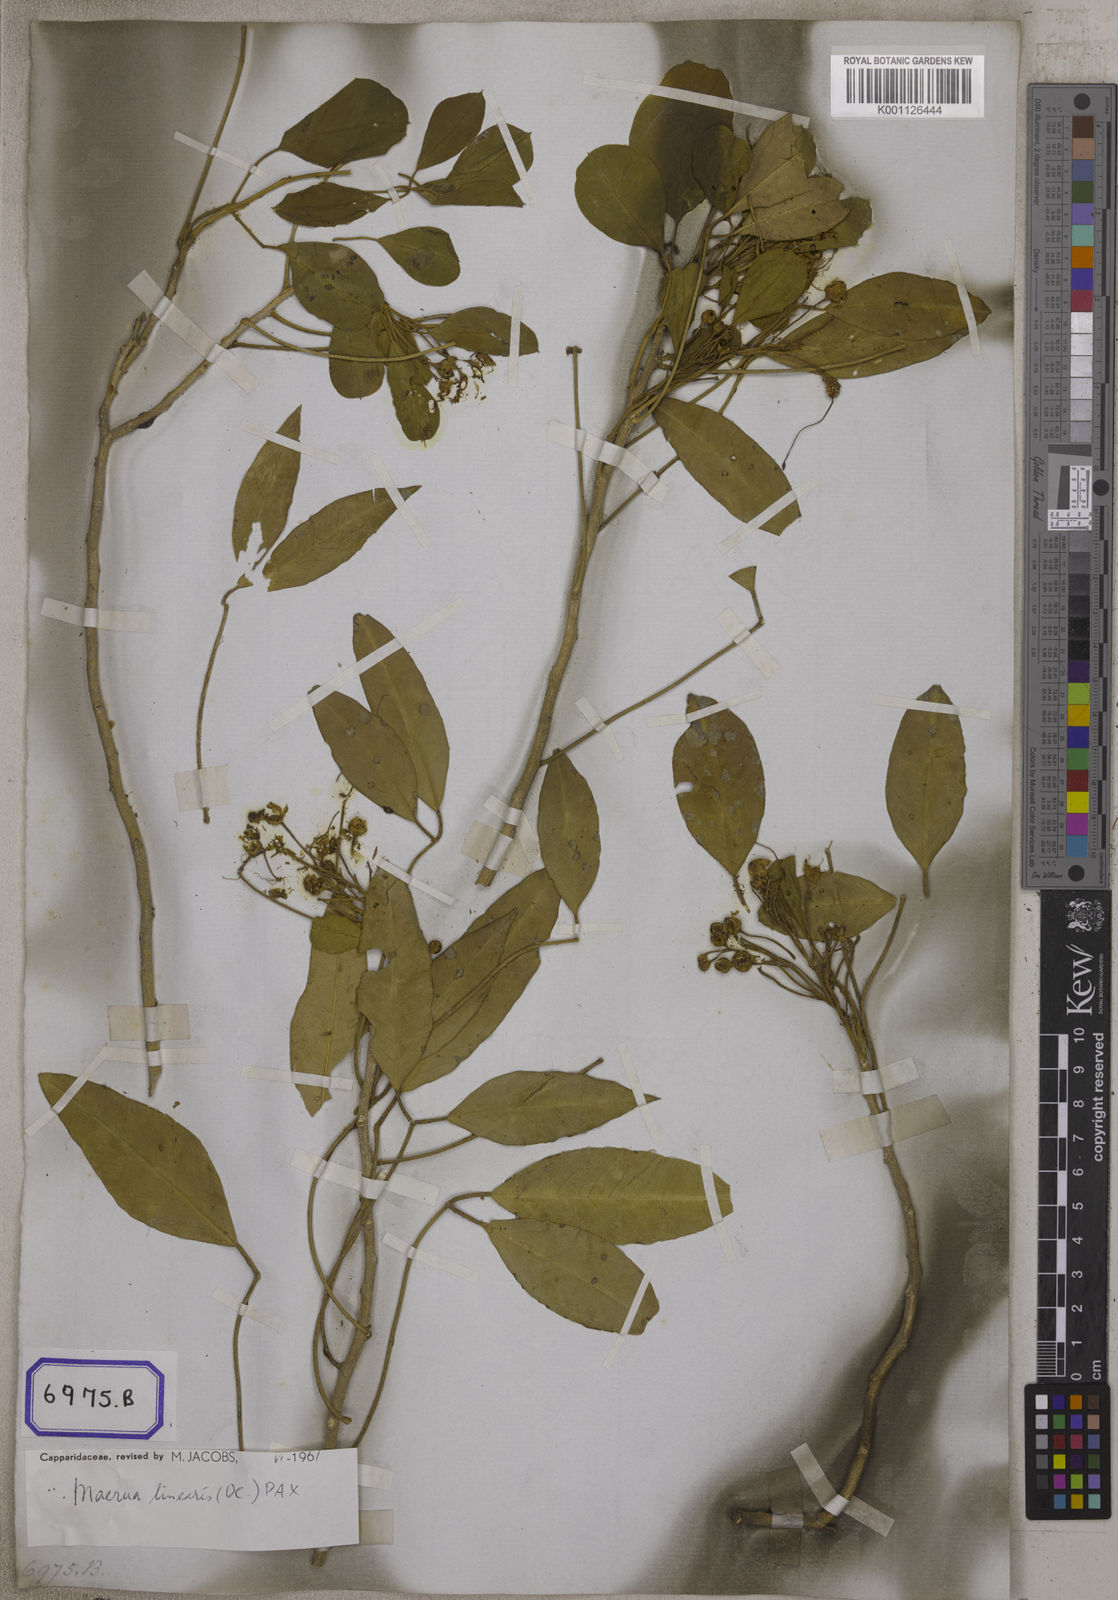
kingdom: Plantae
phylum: Tracheophyta
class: Magnoliopsida
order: Brassicales
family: Capparaceae
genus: Capparis
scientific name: Capparis decidua
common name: Sodada
